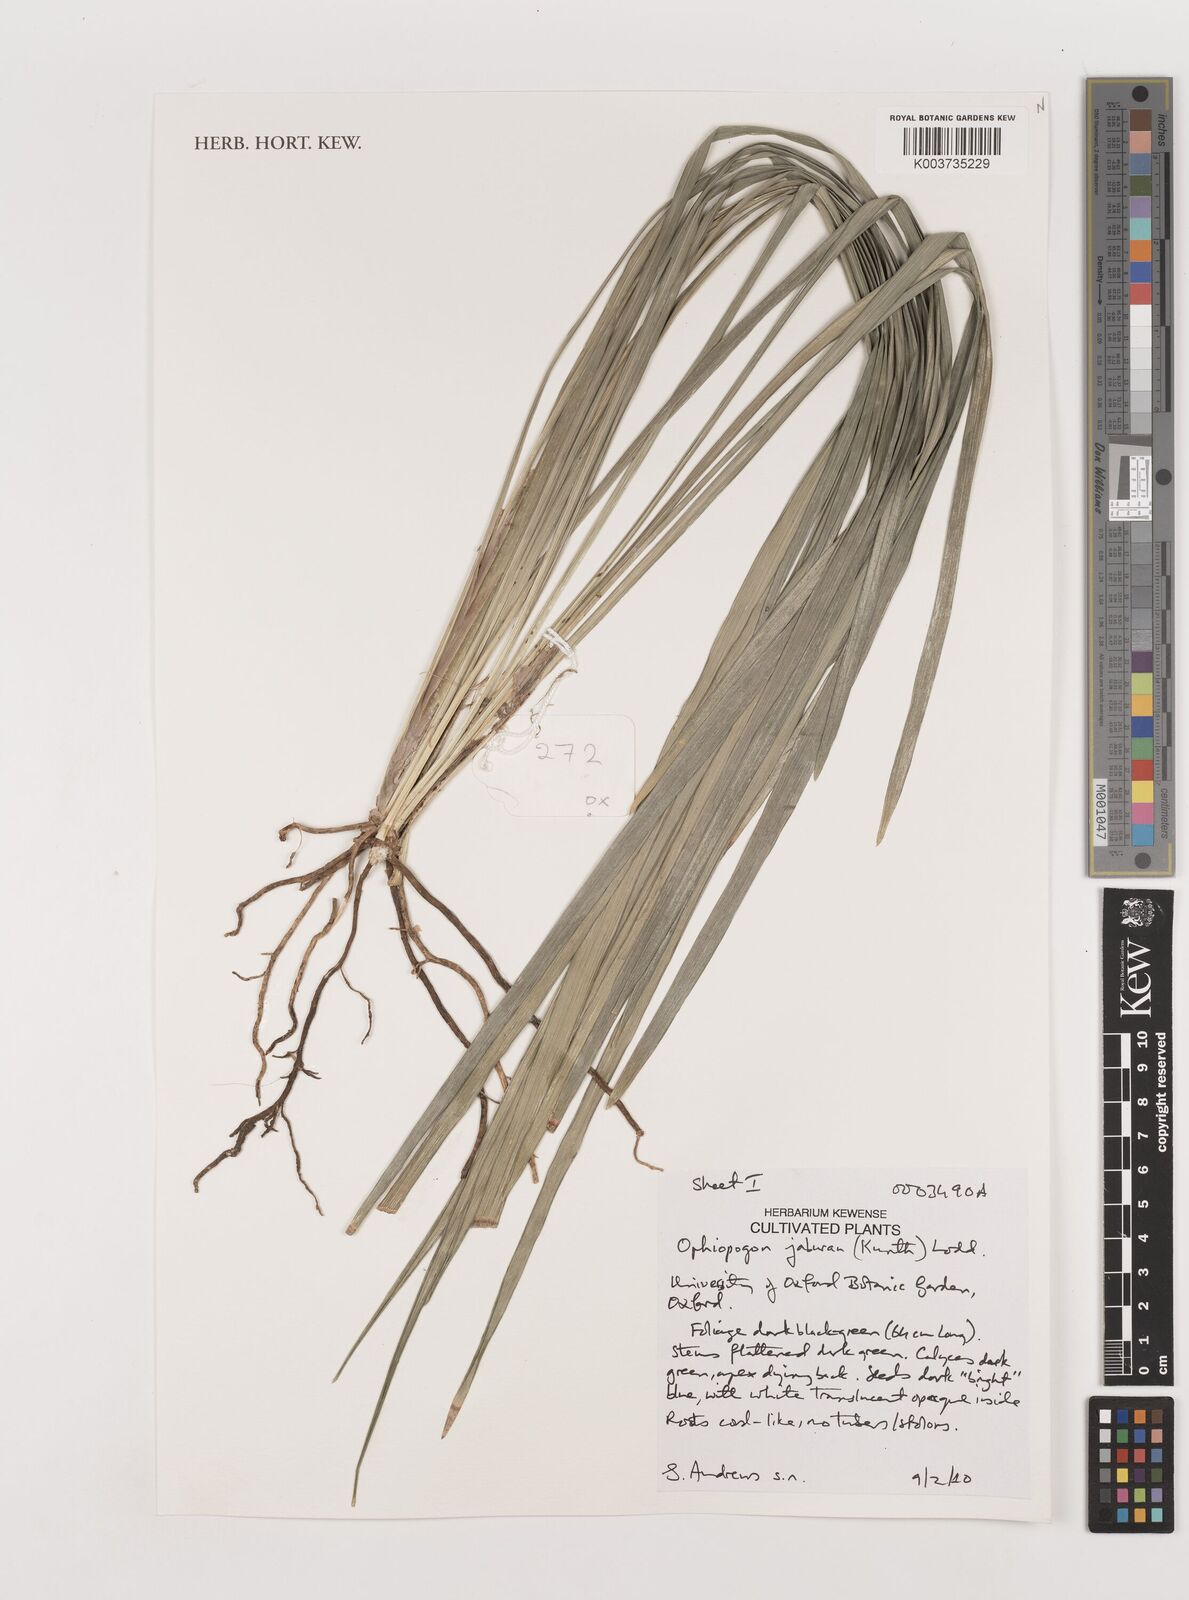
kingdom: Plantae
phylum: Tracheophyta
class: Liliopsida
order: Asparagales
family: Asparagaceae
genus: Ophiopogon
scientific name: Ophiopogon jaburan
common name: Lilyturf
